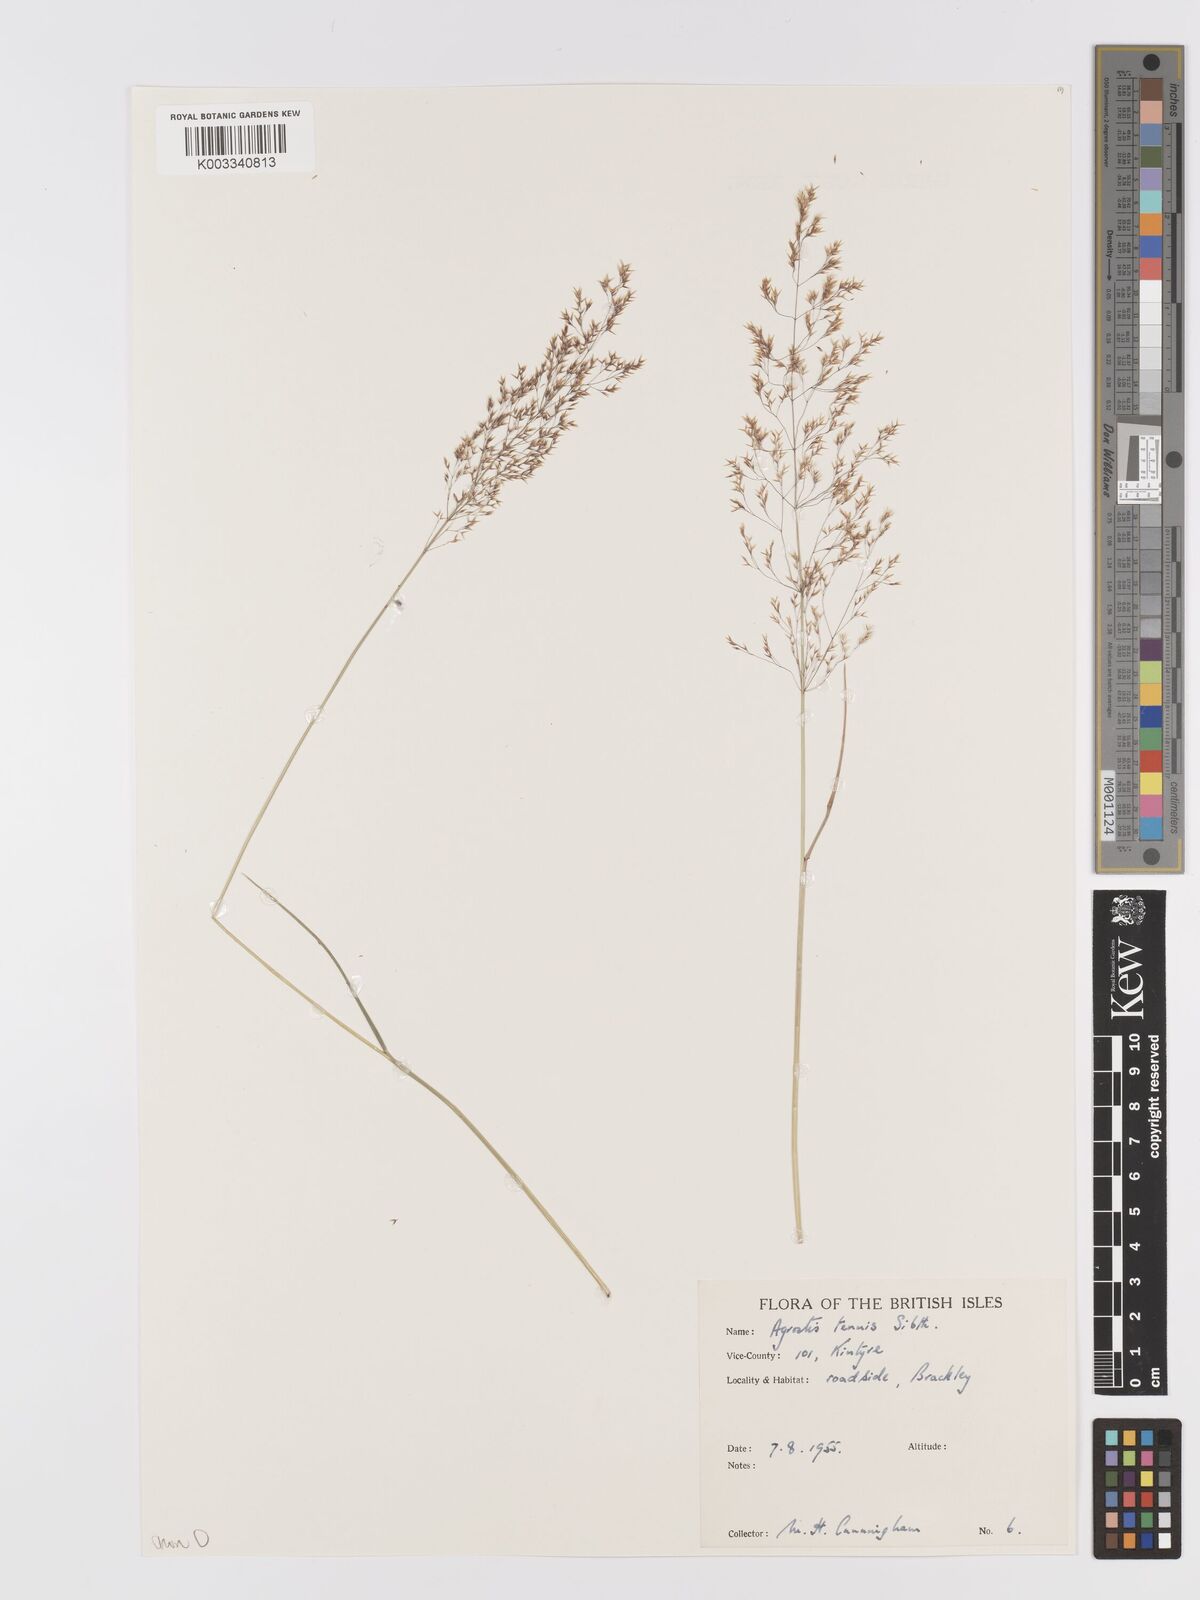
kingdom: Plantae
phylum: Tracheophyta
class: Liliopsida
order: Poales
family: Poaceae
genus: Agrostis
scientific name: Agrostis capillaris
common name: Colonial bentgrass
